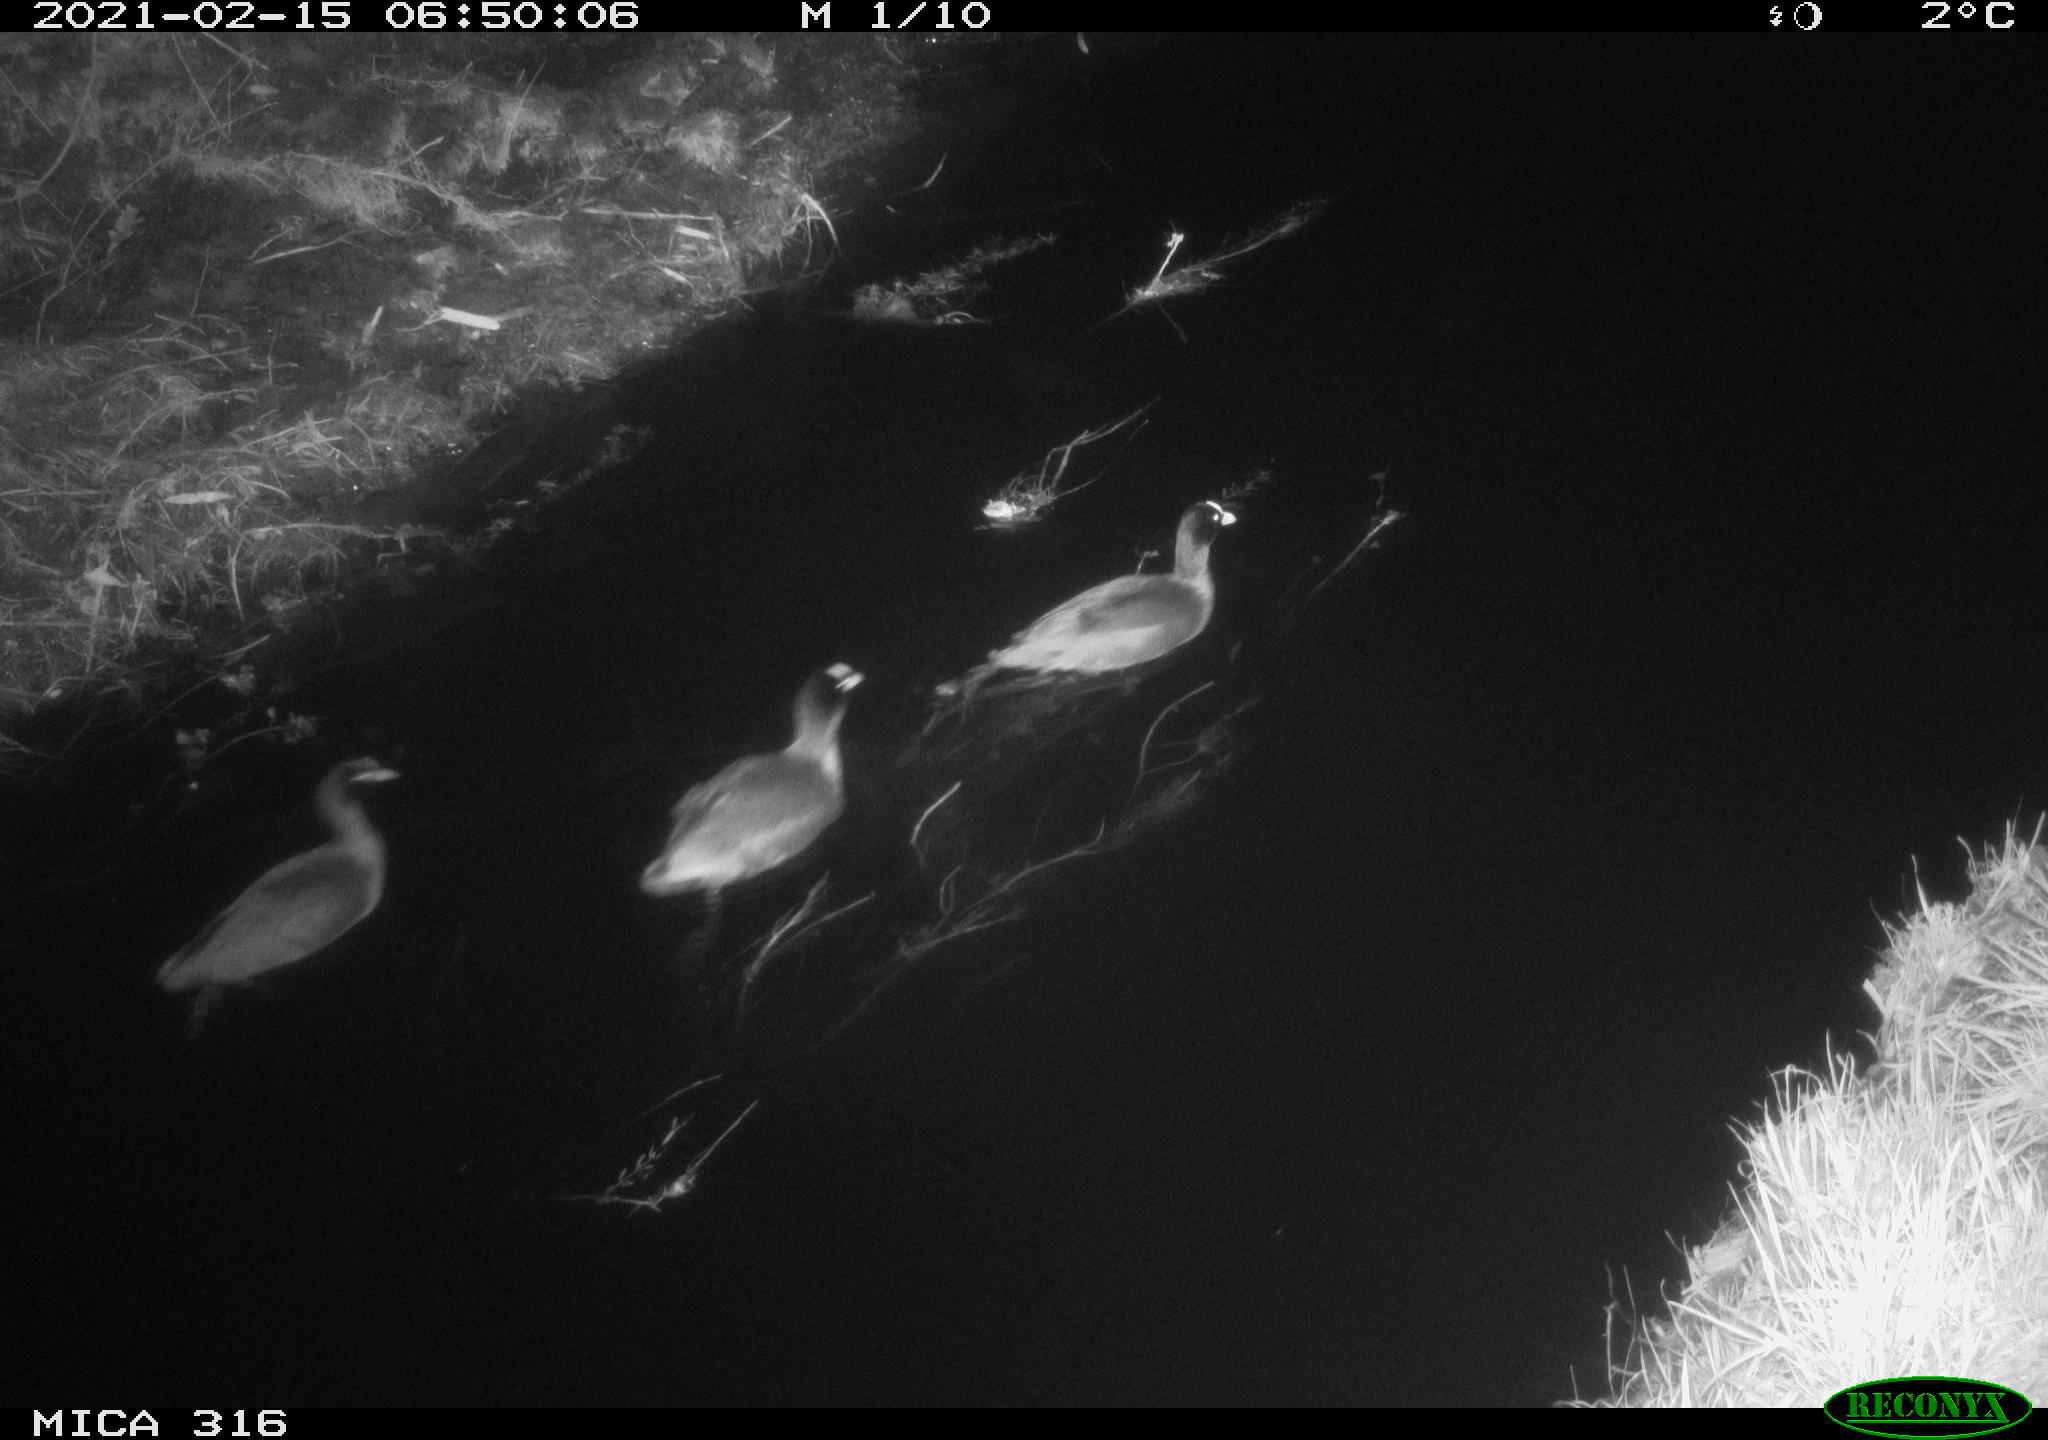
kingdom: Animalia
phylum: Chordata
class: Aves
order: Gruiformes
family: Rallidae
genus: Fulica
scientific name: Fulica atra
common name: Eurasian coot
